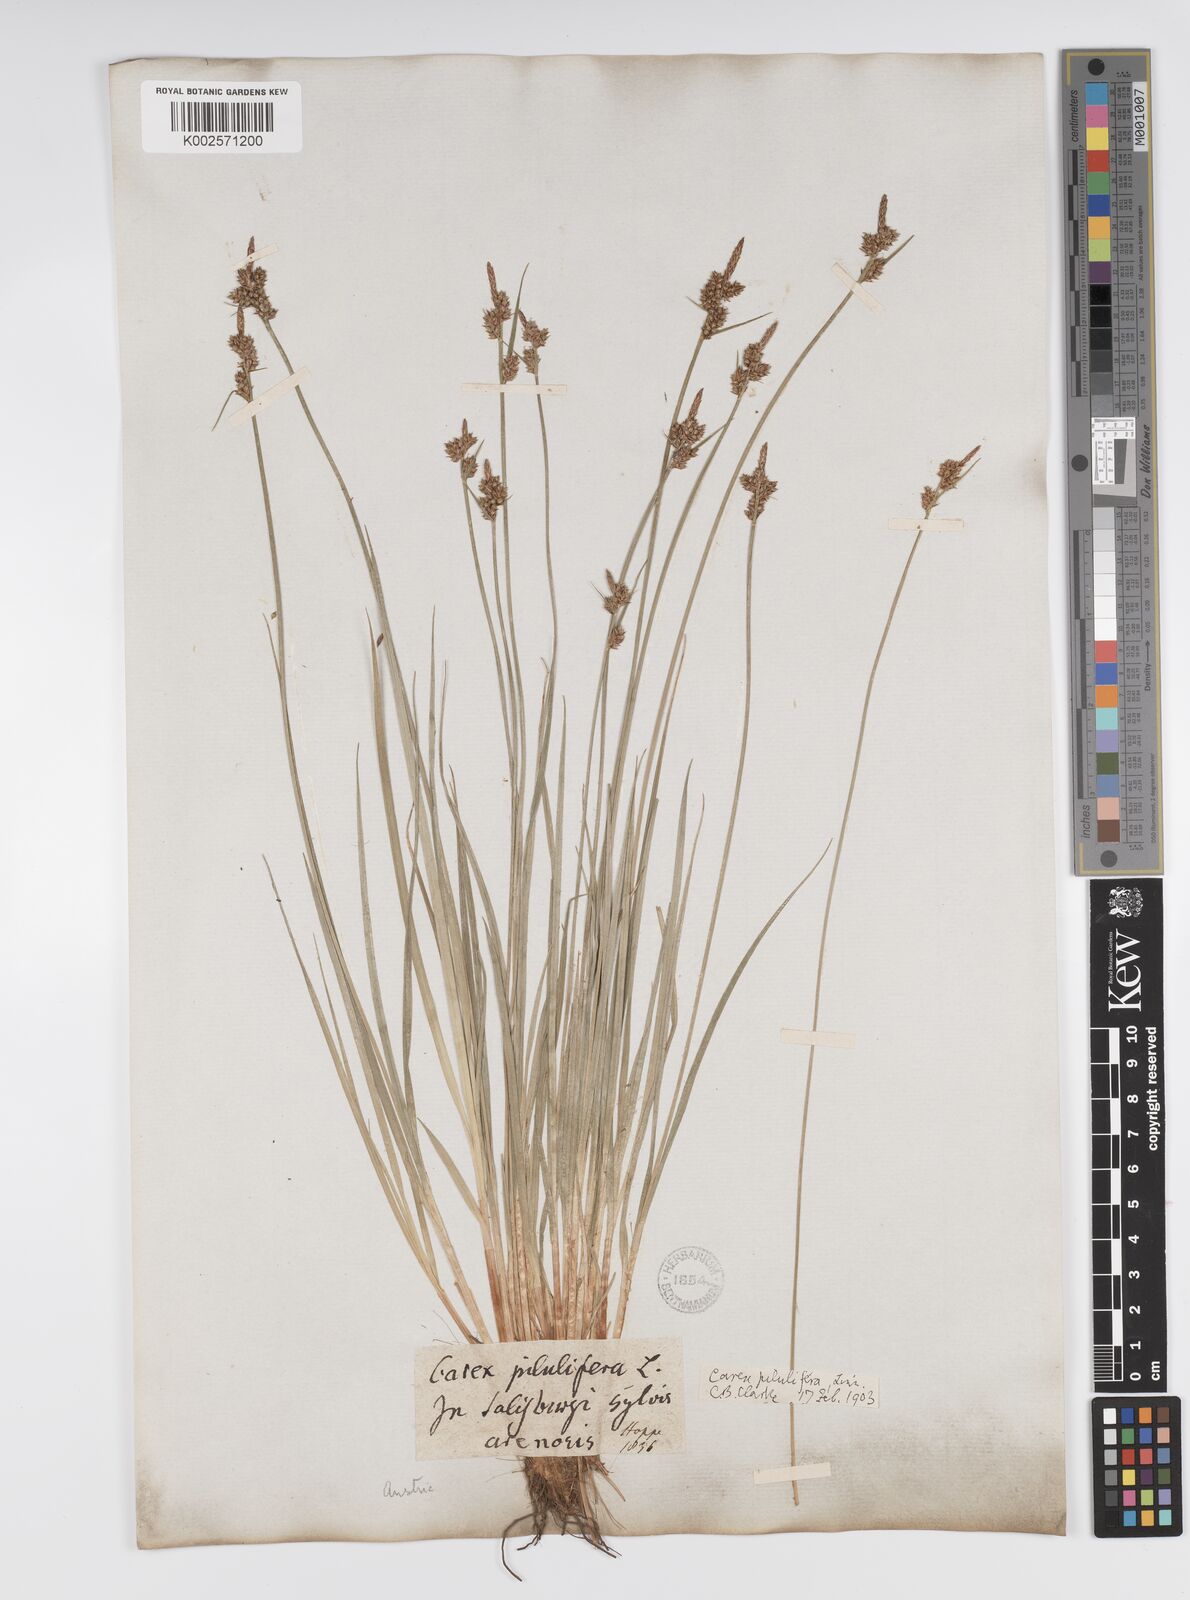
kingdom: Plantae
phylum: Tracheophyta
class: Liliopsida
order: Poales
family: Cyperaceae
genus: Carex
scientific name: Carex pilulifera
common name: Pill sedge
